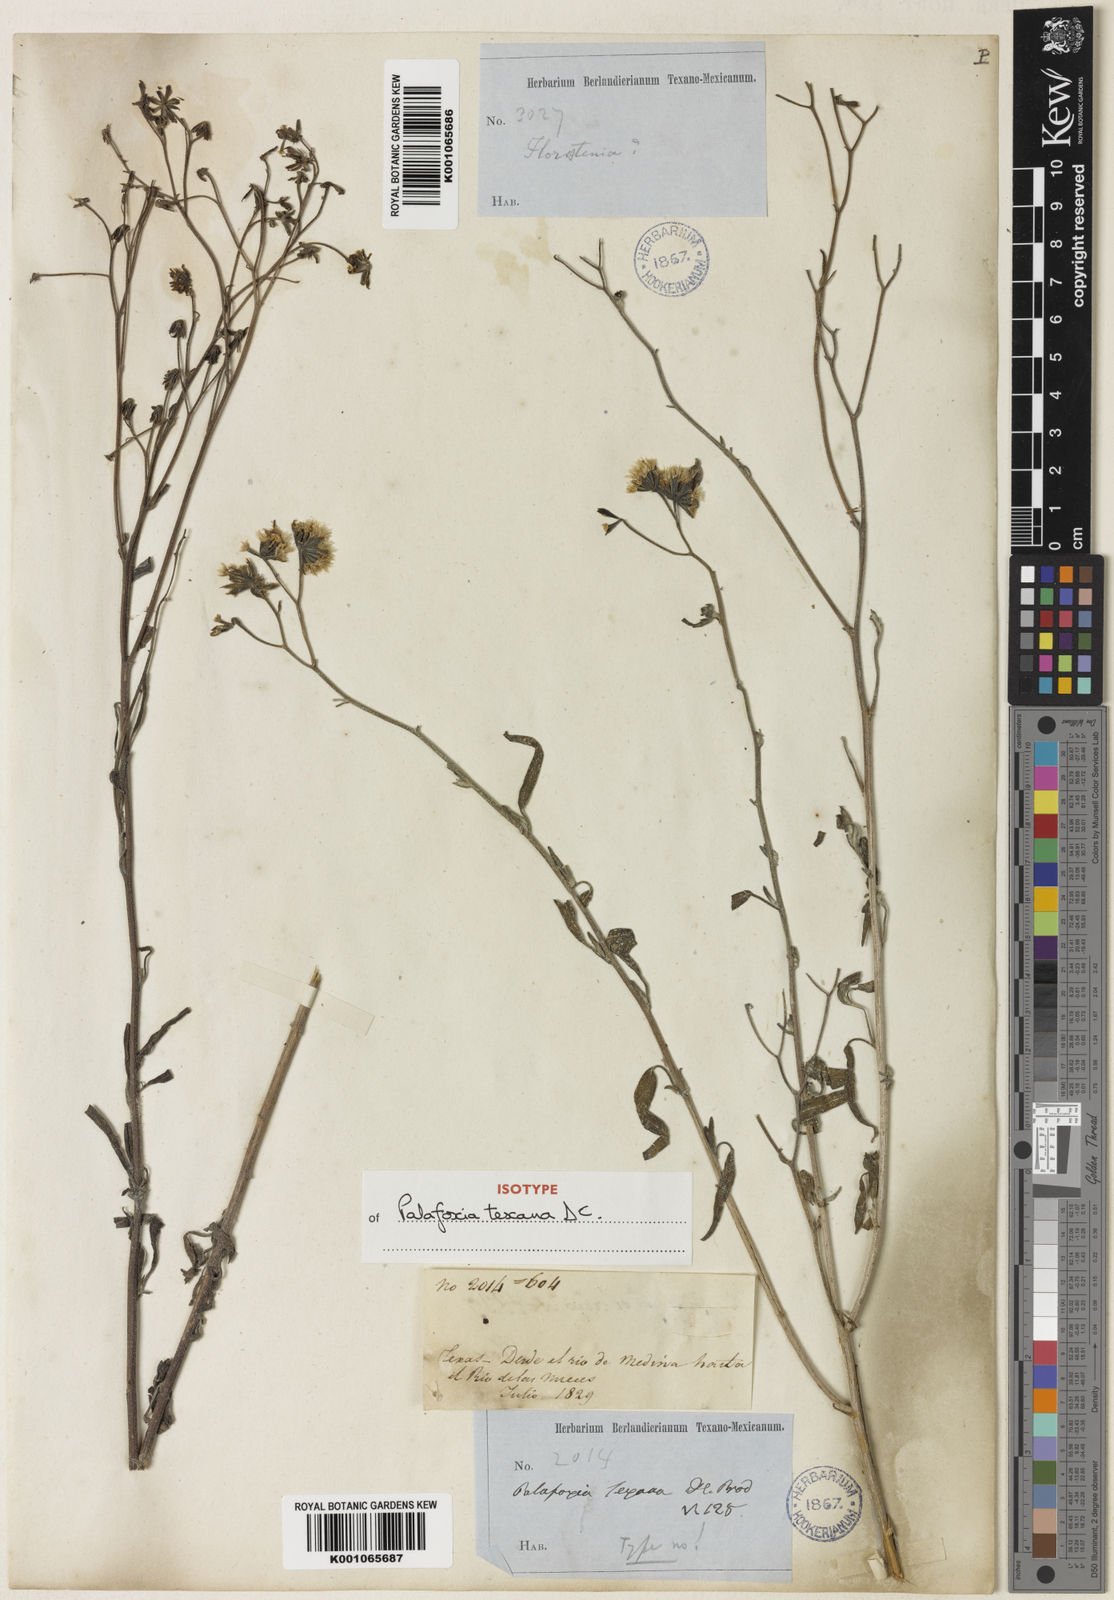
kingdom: Plantae
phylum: Tracheophyta
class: Magnoliopsida
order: Asterales
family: Asteraceae
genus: Palafoxia
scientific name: Palafoxia texana
